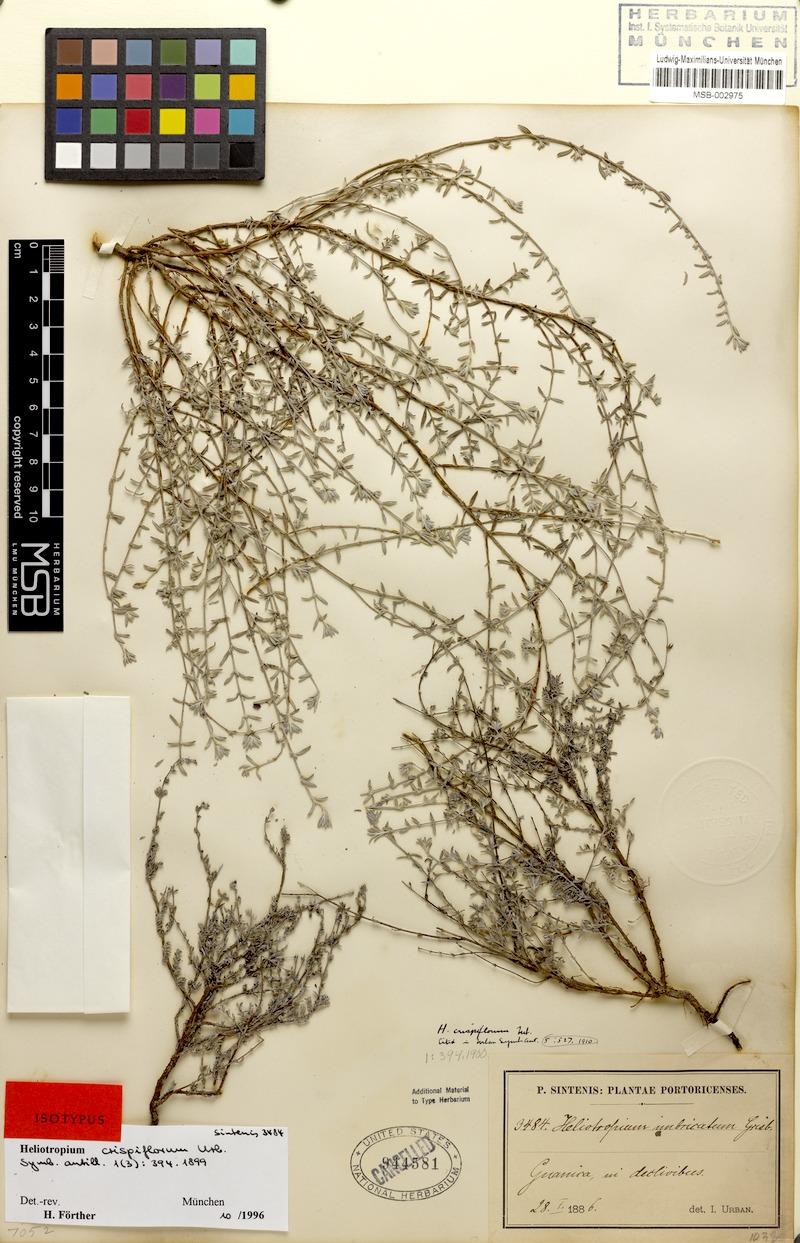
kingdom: Plantae
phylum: Tracheophyta
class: Magnoliopsida
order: Boraginales
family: Heliotropiaceae
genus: Euploca
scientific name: Euploca microphylla
